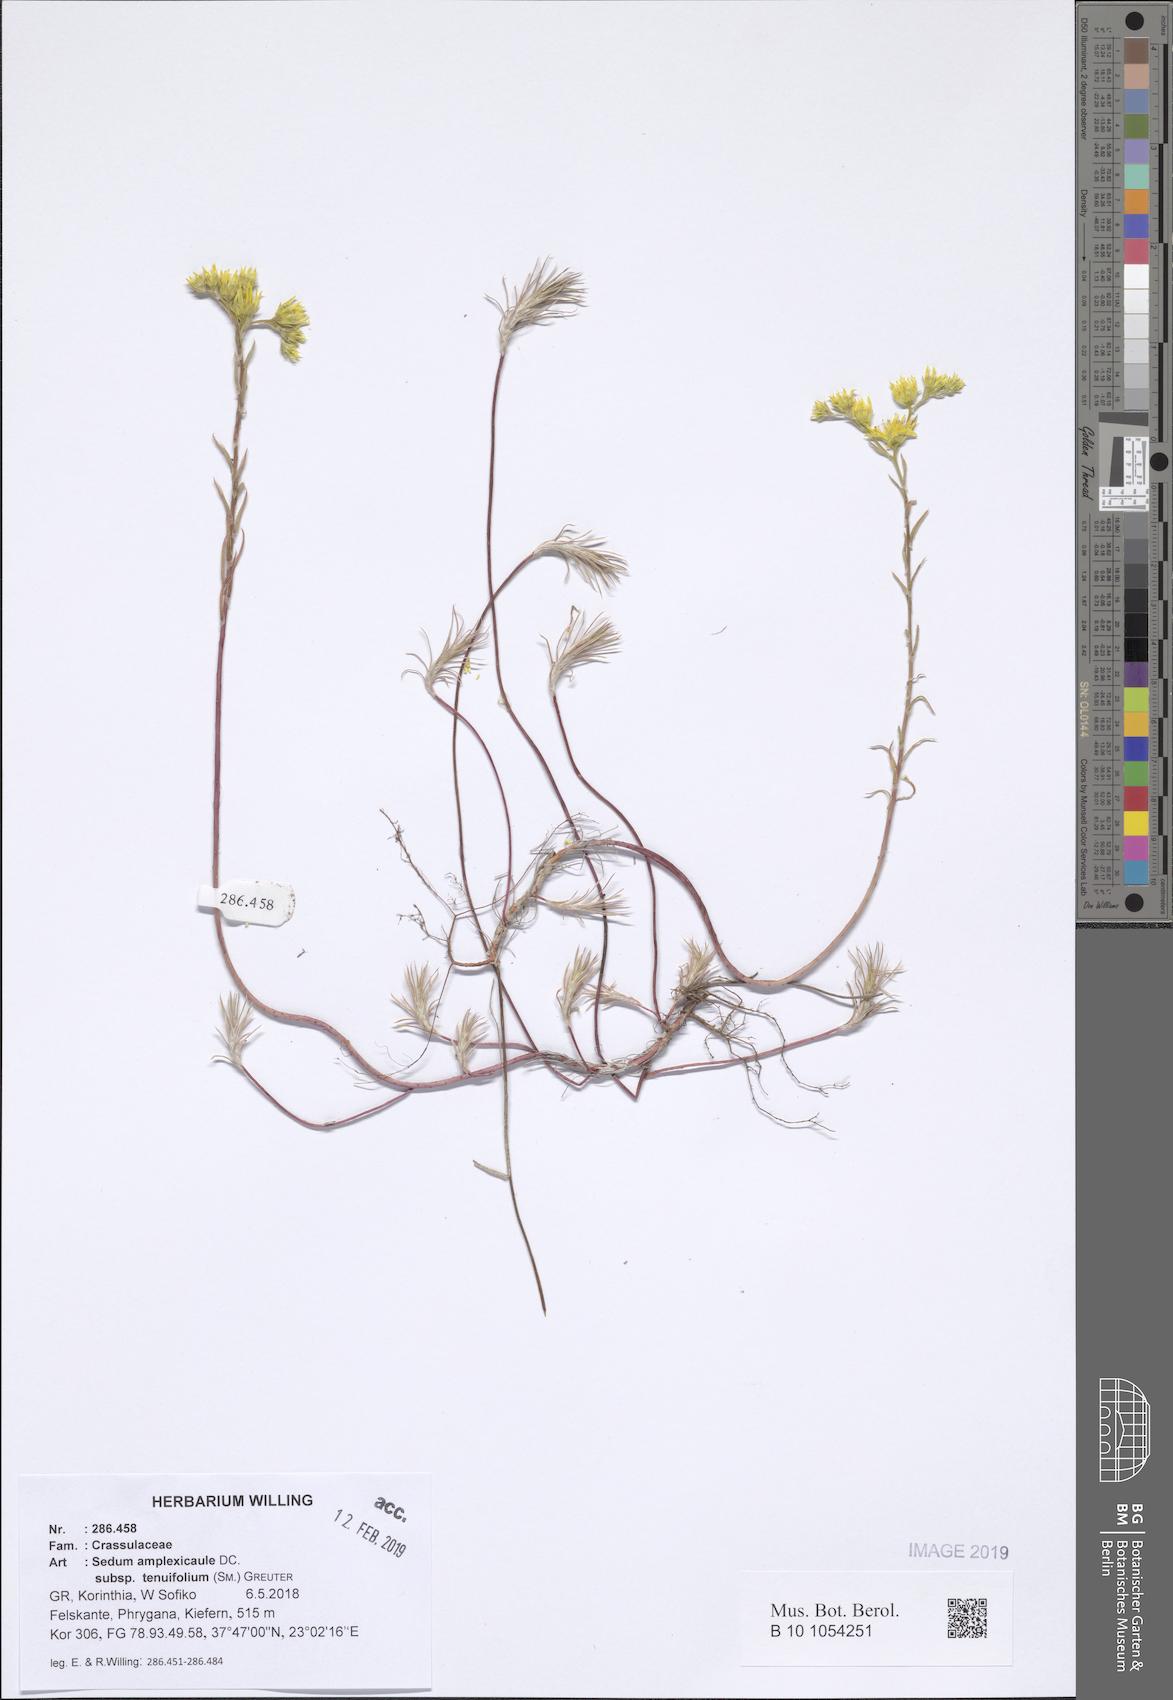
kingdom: Plantae
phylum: Tracheophyta
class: Magnoliopsida
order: Saxifragales
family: Crassulaceae
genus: Petrosedum
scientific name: Petrosedum tenuifolium
